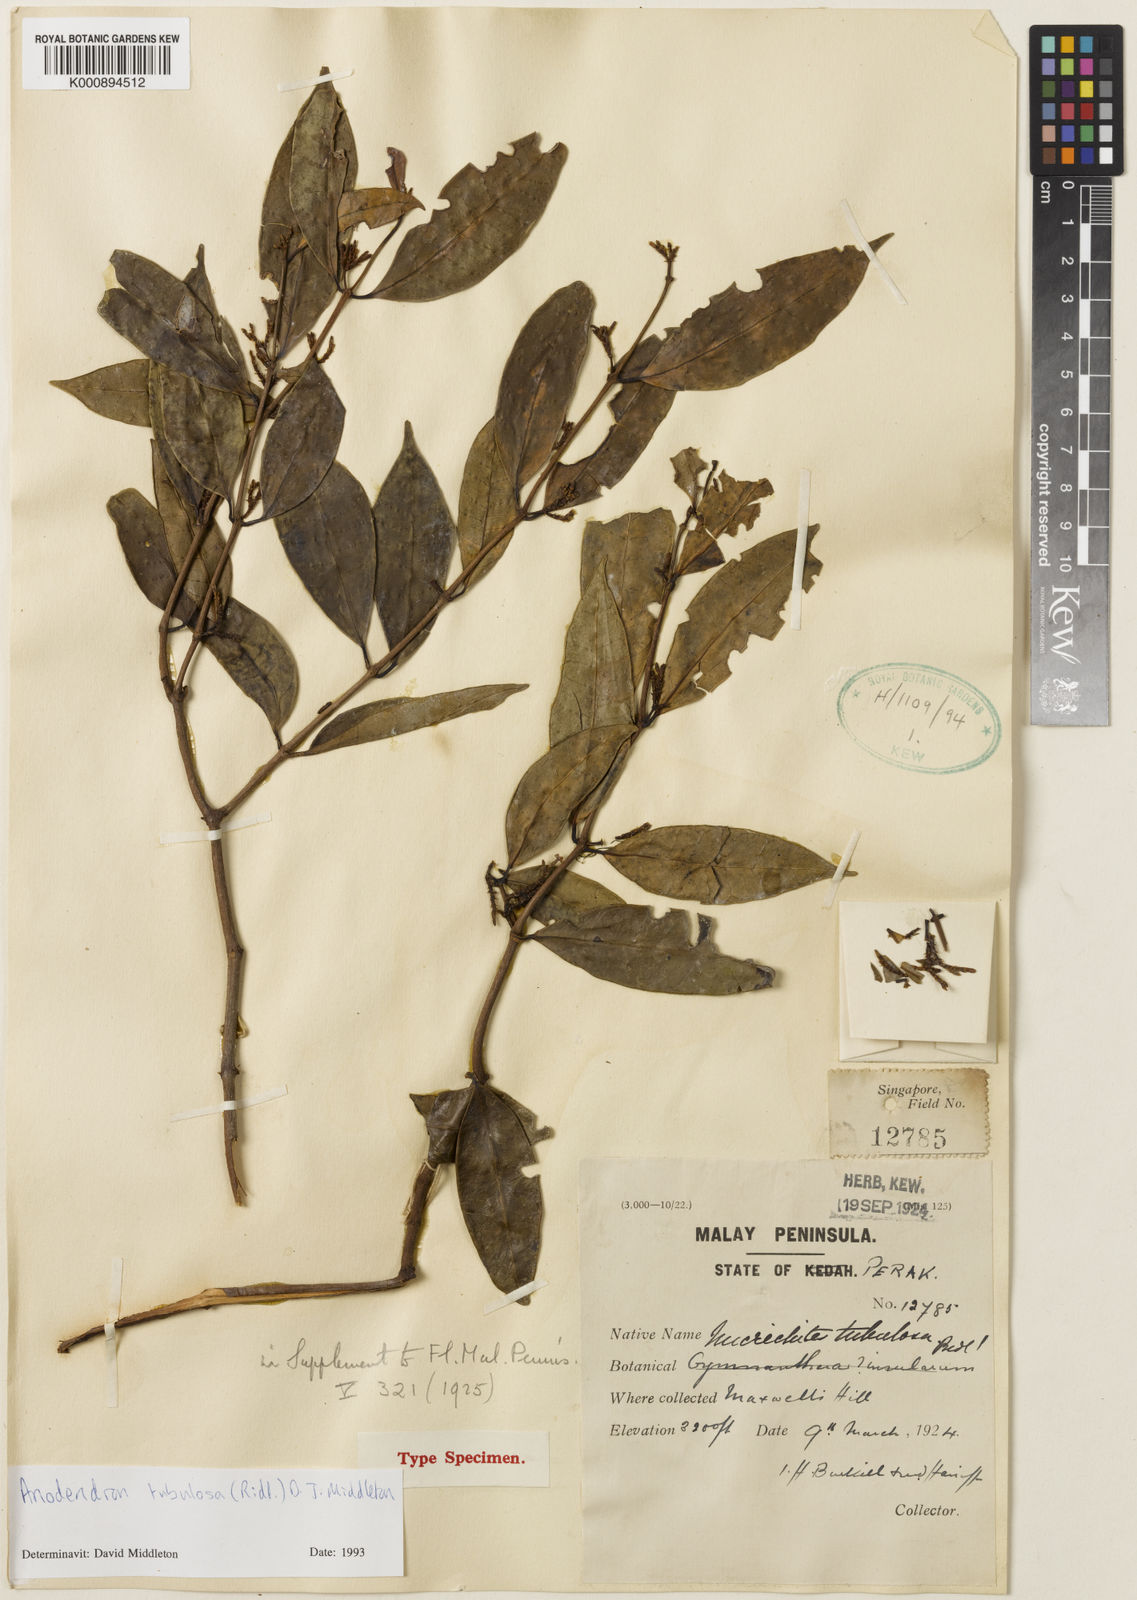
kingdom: Plantae
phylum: Tracheophyta
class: Magnoliopsida
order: Gentianales
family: Apocynaceae
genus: Anodendron
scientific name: Anodendron tubulosum
